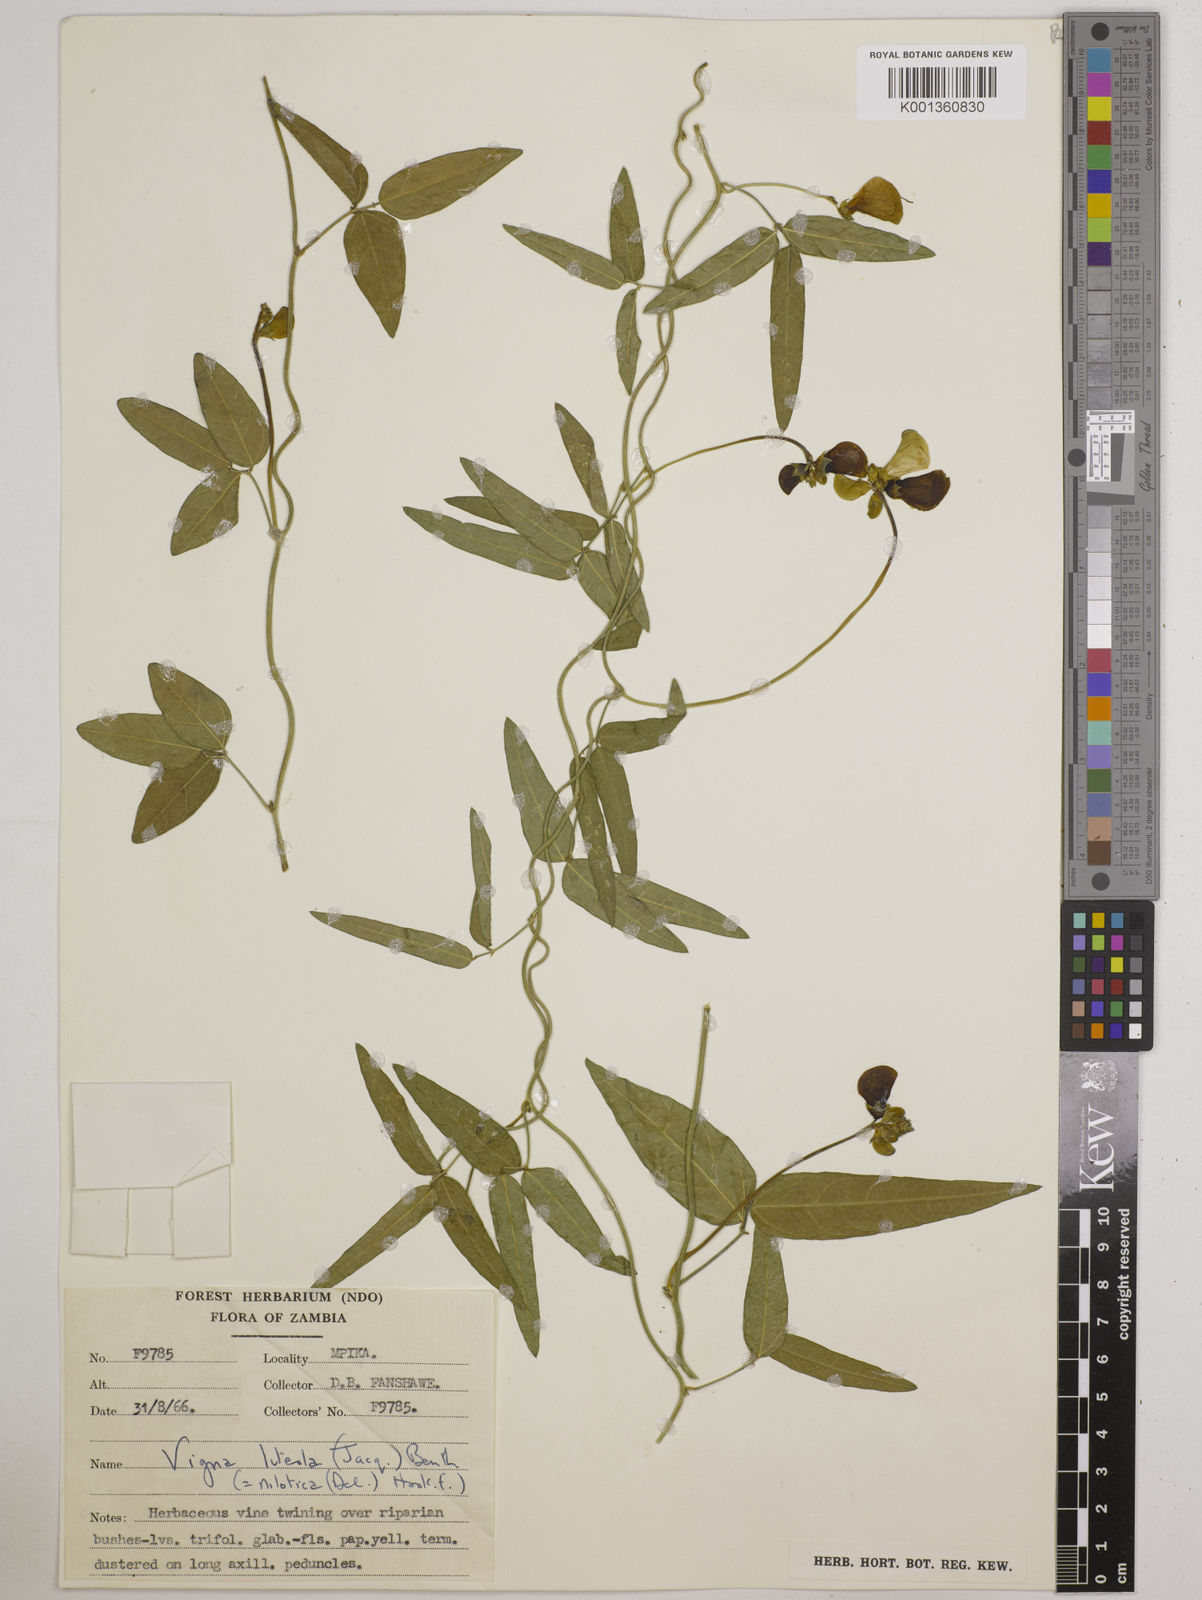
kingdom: Plantae
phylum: Tracheophyta
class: Magnoliopsida
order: Fabales
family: Fabaceae
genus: Vigna
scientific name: Vigna luteola
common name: Hairypod cowpea
